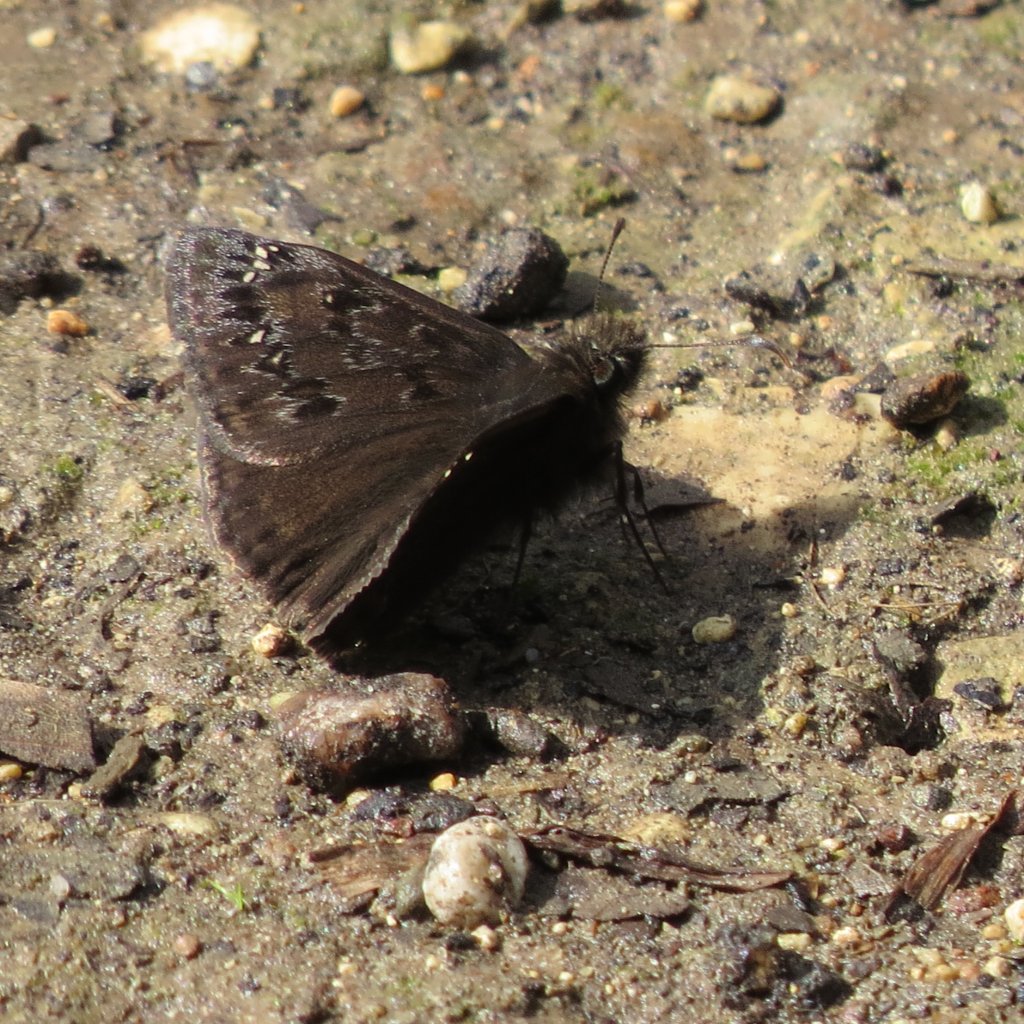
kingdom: Animalia
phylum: Arthropoda
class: Insecta
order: Lepidoptera
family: Hesperiidae
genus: Gesta
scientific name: Gesta
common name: Juvenal's Duskywing
